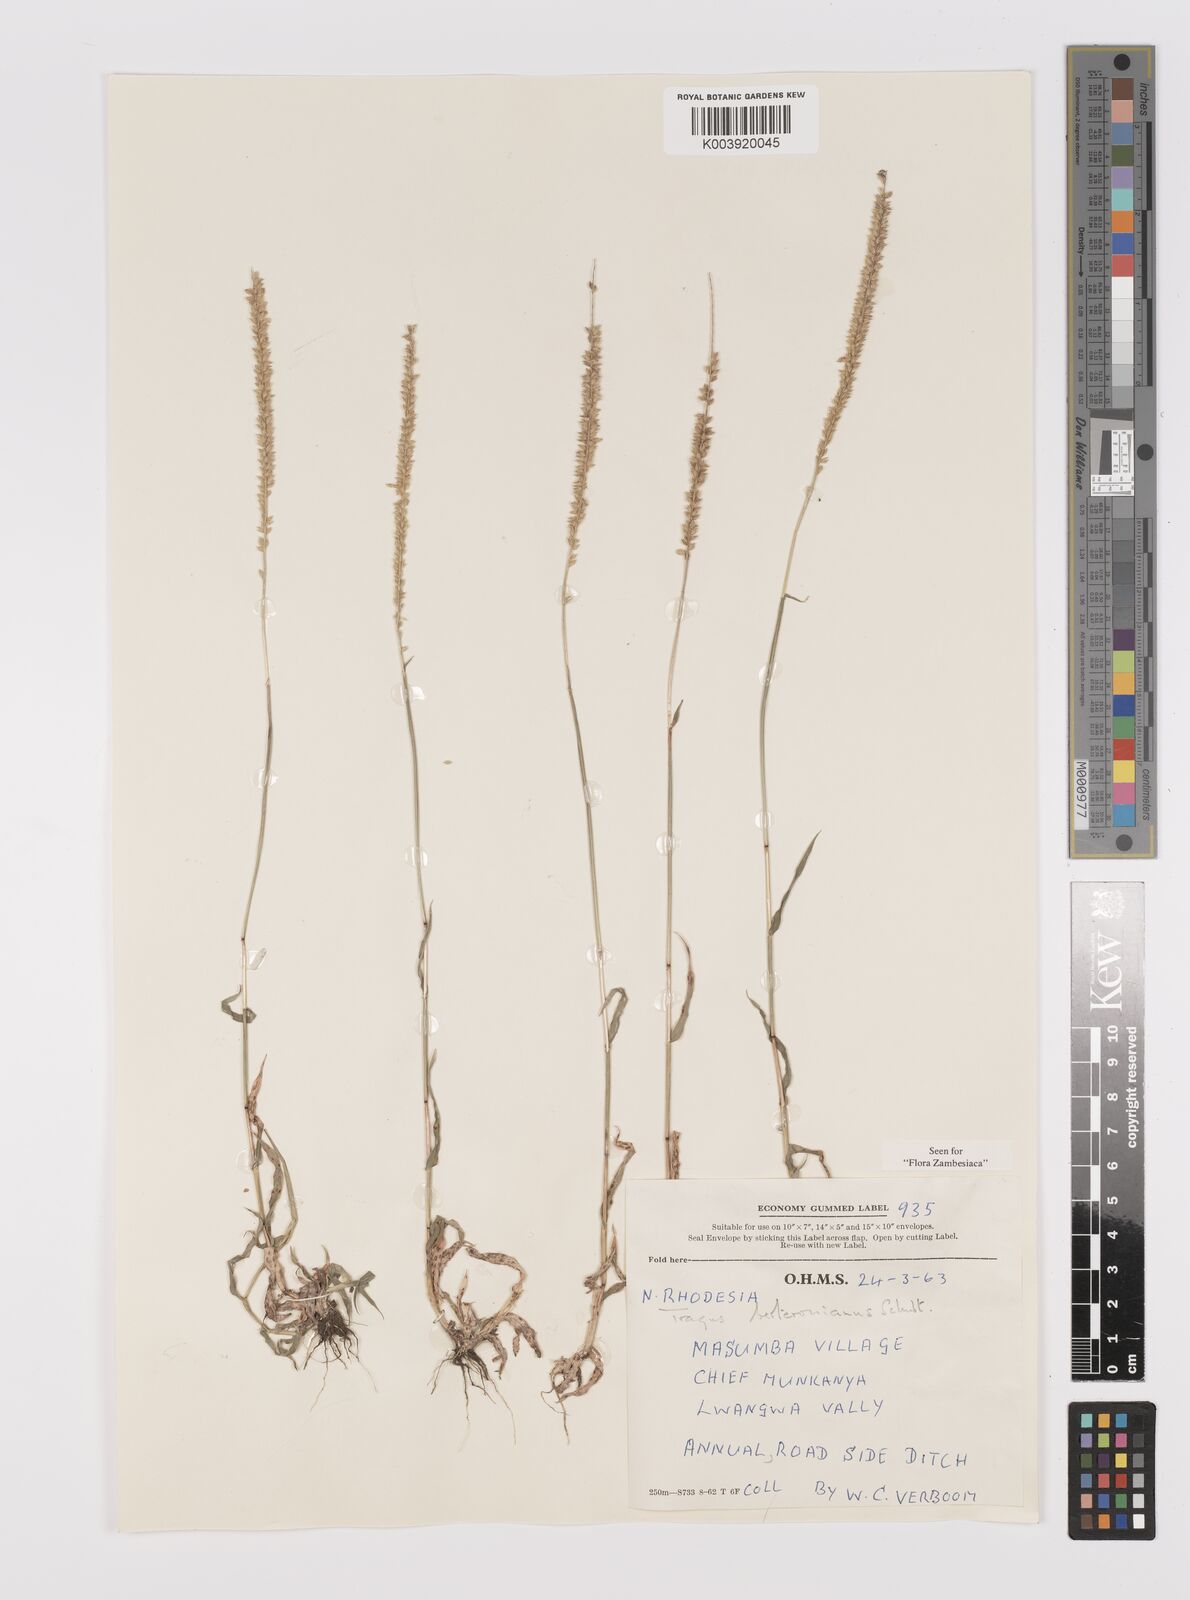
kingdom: Plantae
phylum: Tracheophyta
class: Liliopsida
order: Poales
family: Poaceae
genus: Tragus
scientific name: Tragus berteronianus
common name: African bur-grass
